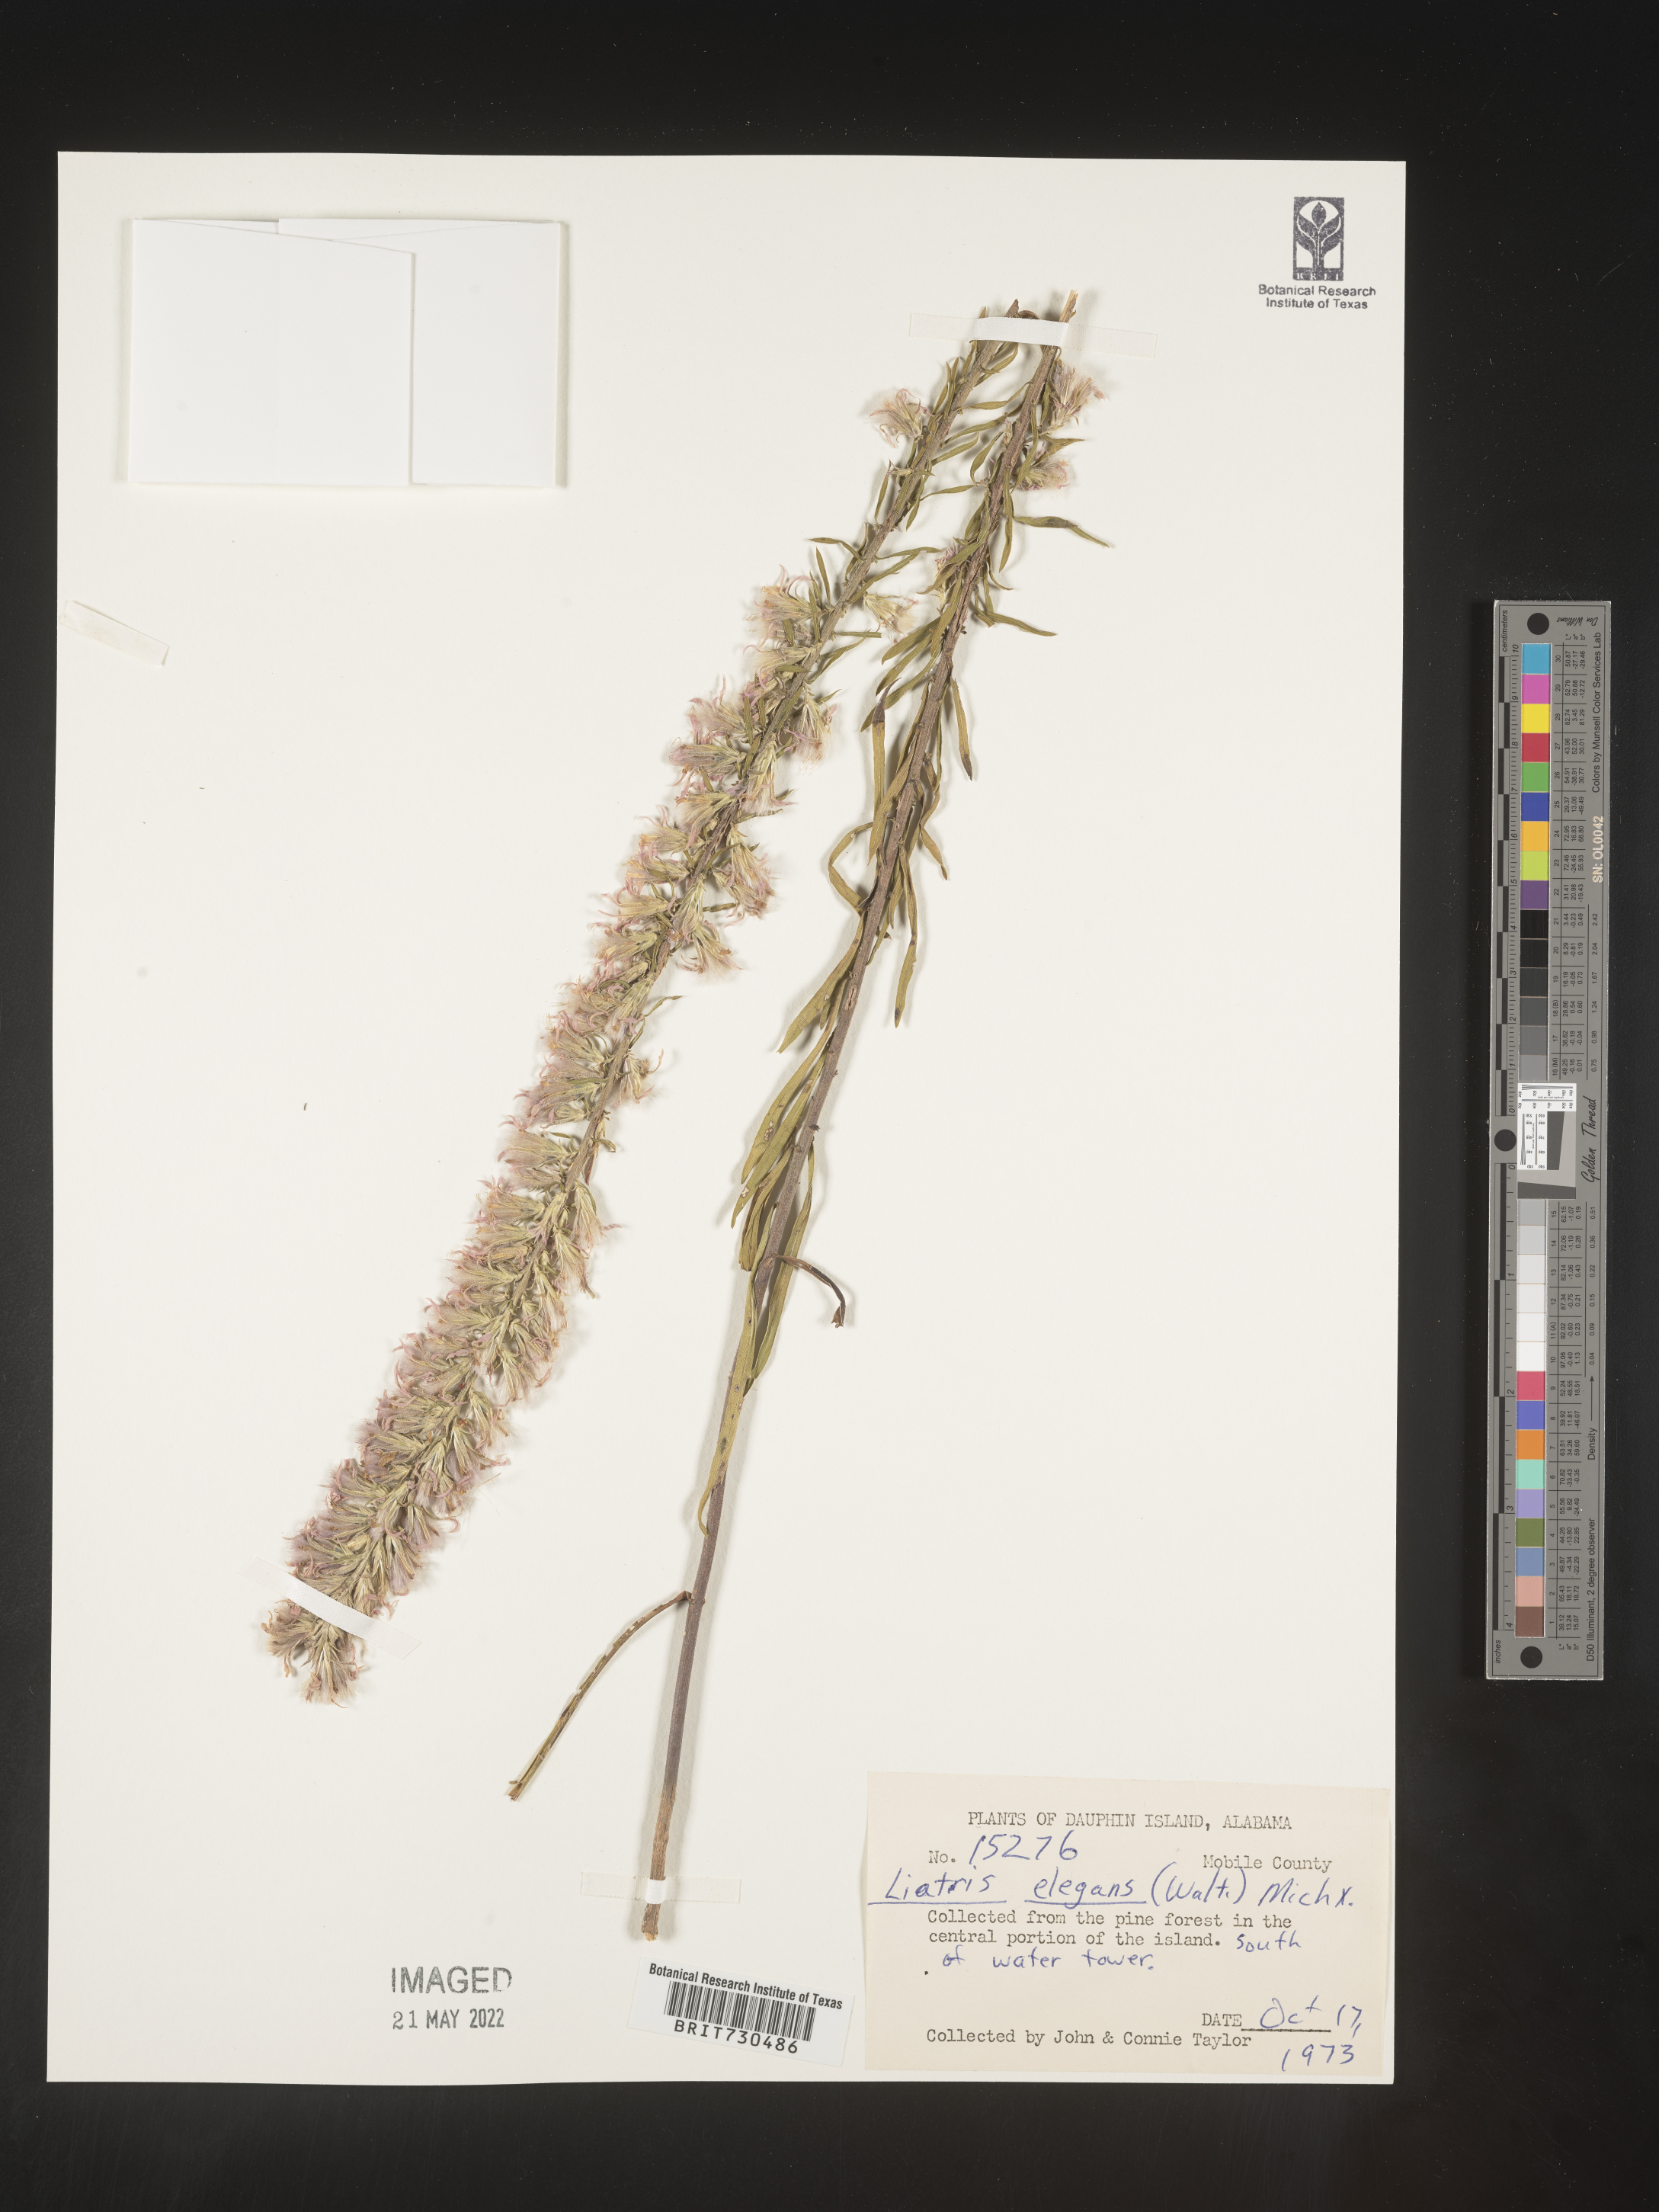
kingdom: Plantae
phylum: Tracheophyta
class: Magnoliopsida
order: Asterales
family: Asteraceae
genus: Liatris
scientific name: Liatris elegans
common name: Pinkscale gayfeather
